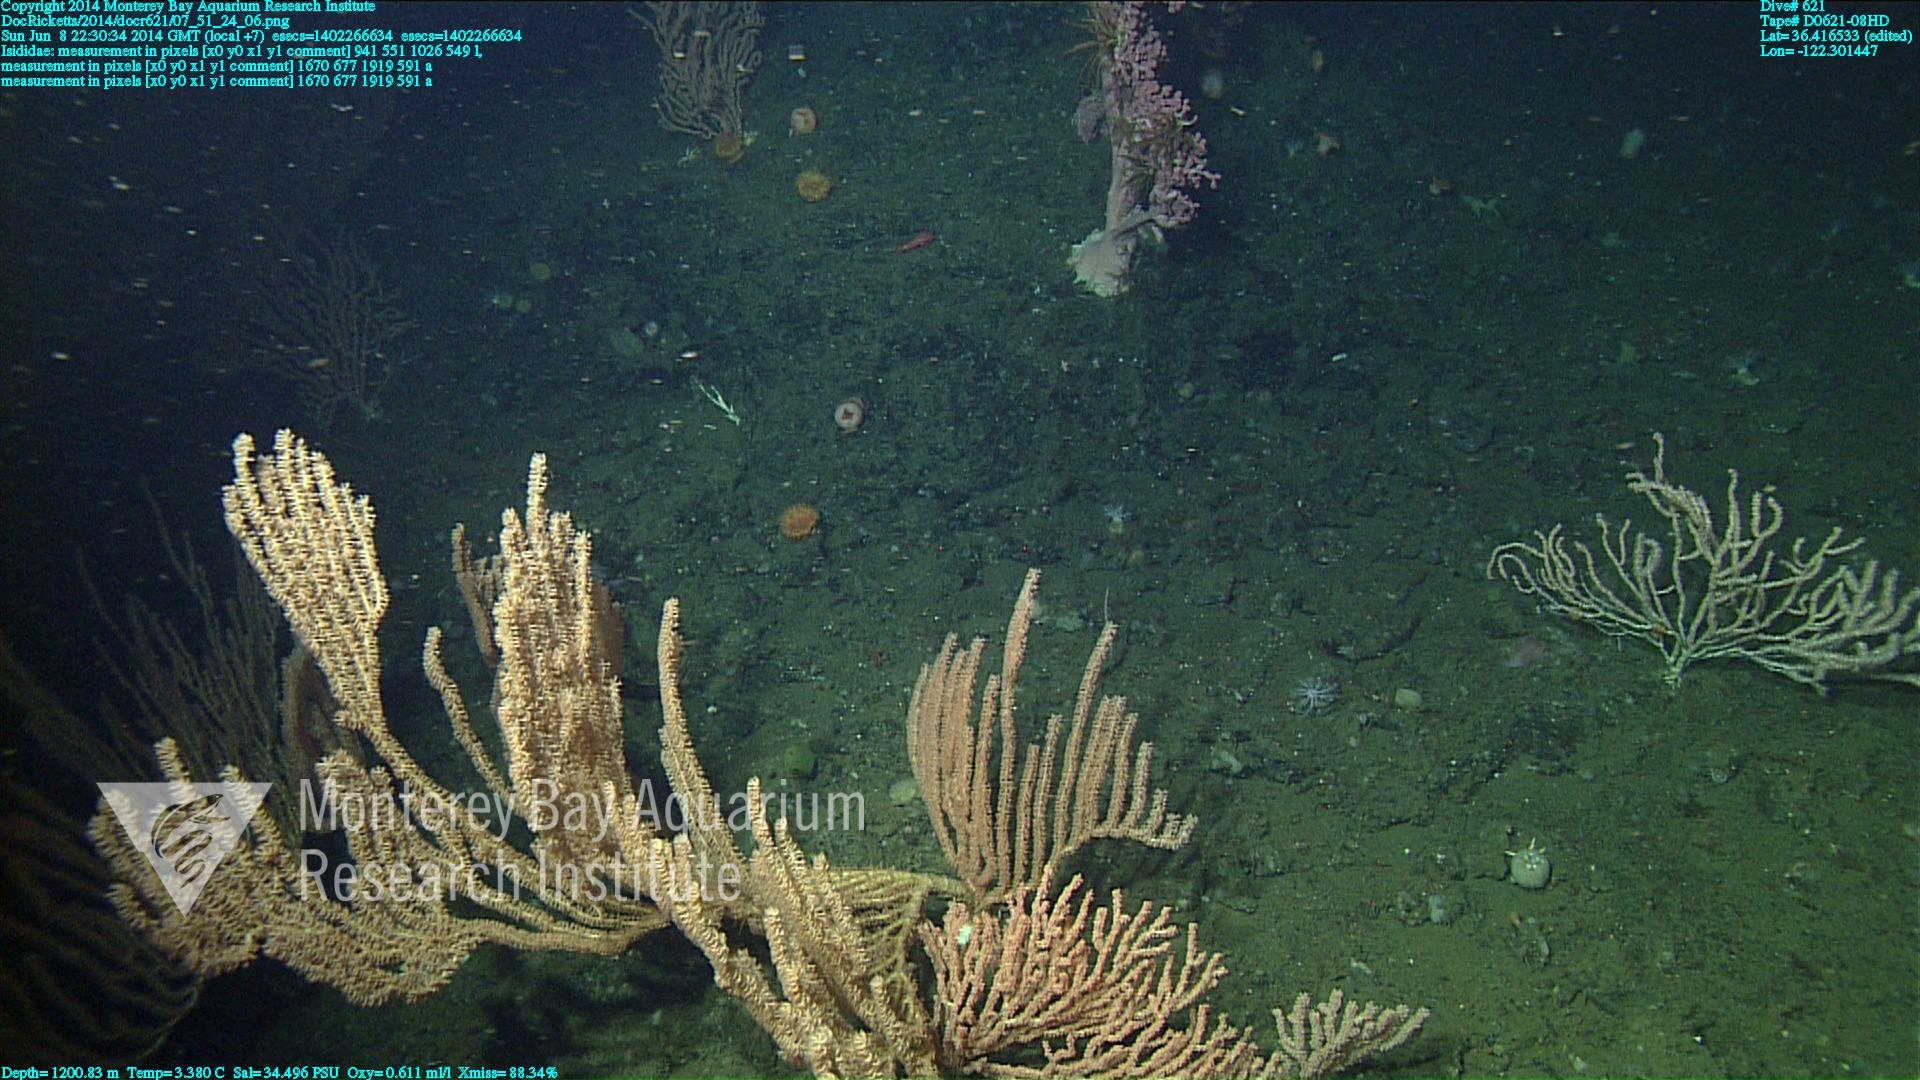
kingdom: Animalia
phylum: Cnidaria
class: Anthozoa
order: Scleralcyonacea
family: Keratoisididae
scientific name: Keratoisididae
